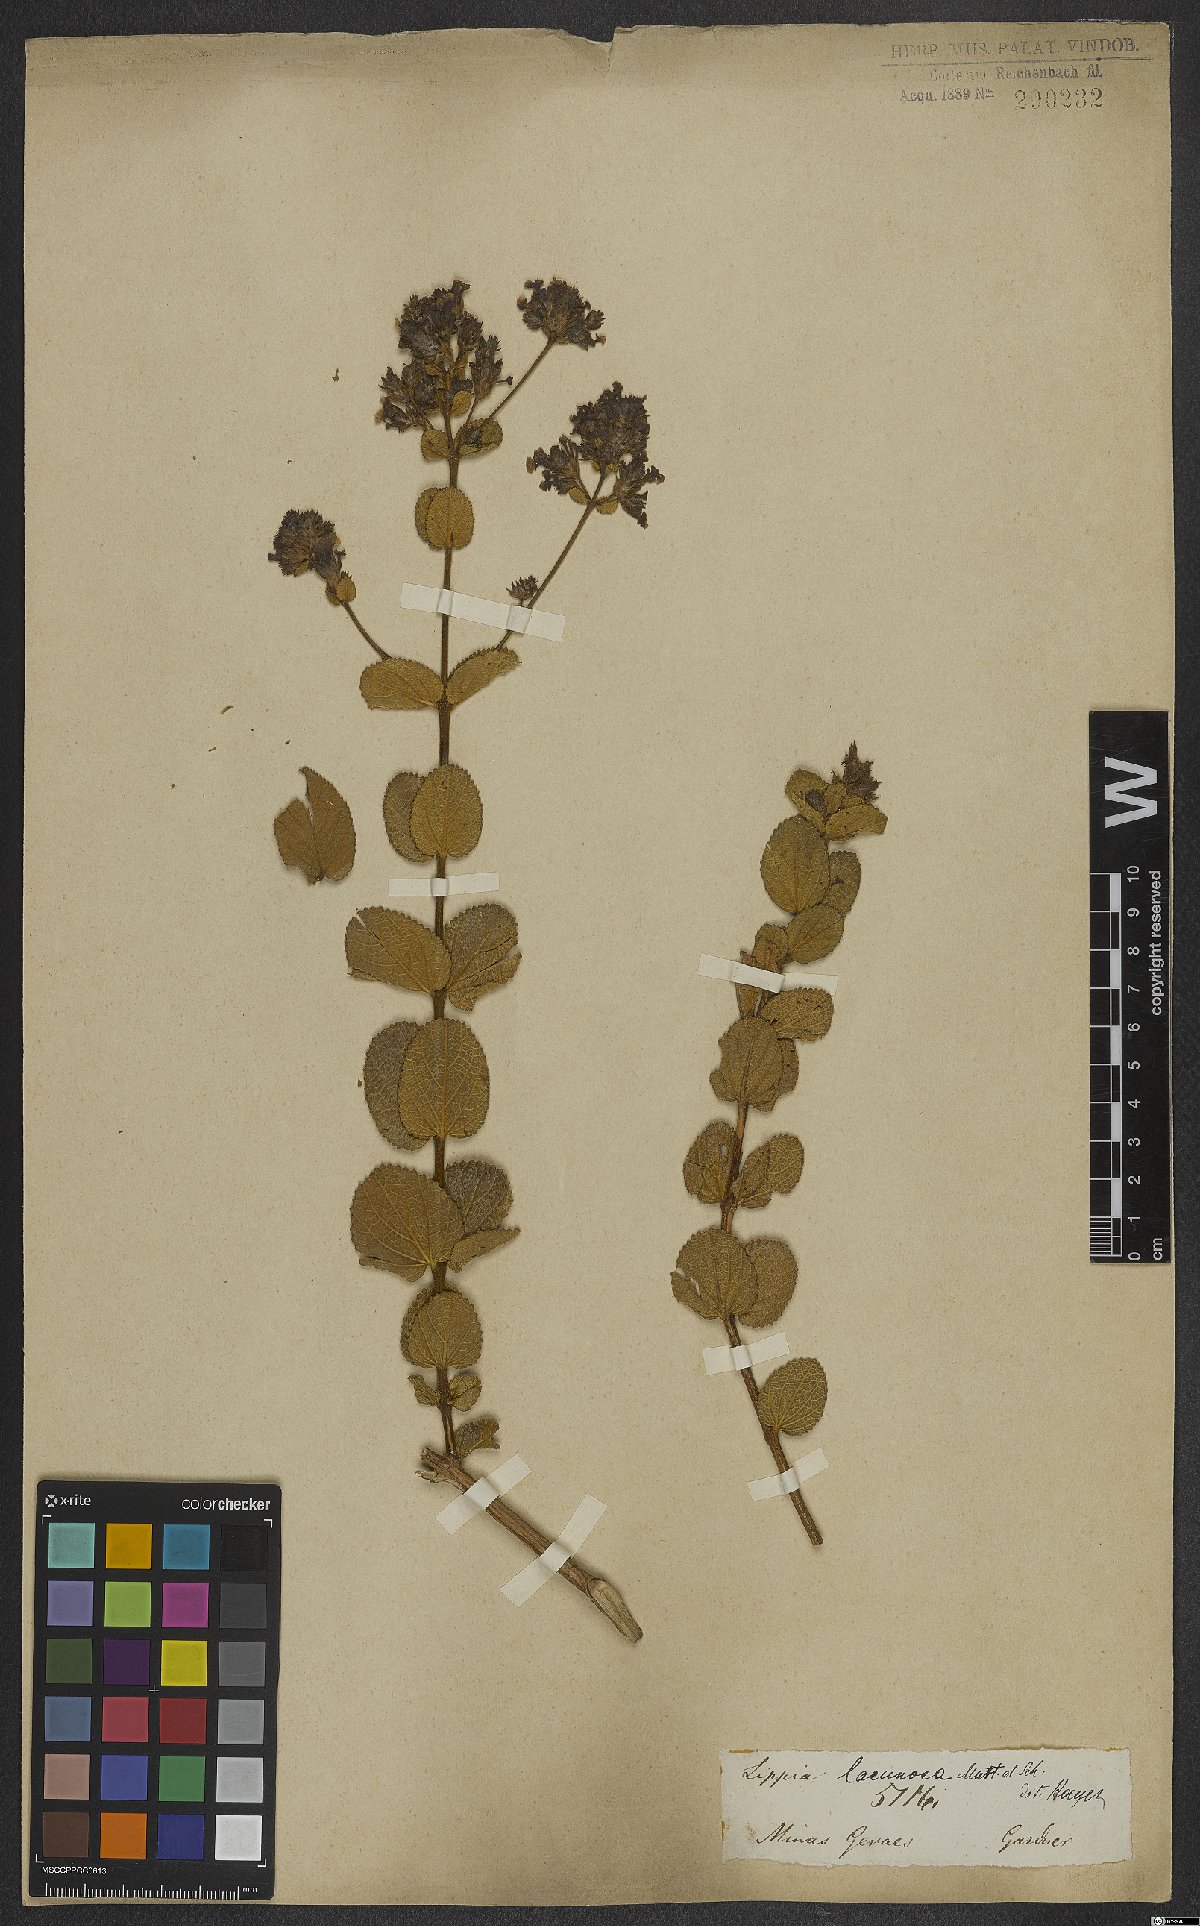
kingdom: Plantae
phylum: Tracheophyta
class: Magnoliopsida
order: Lamiales
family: Verbenaceae
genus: Lippia
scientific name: Lippia lacunosa
